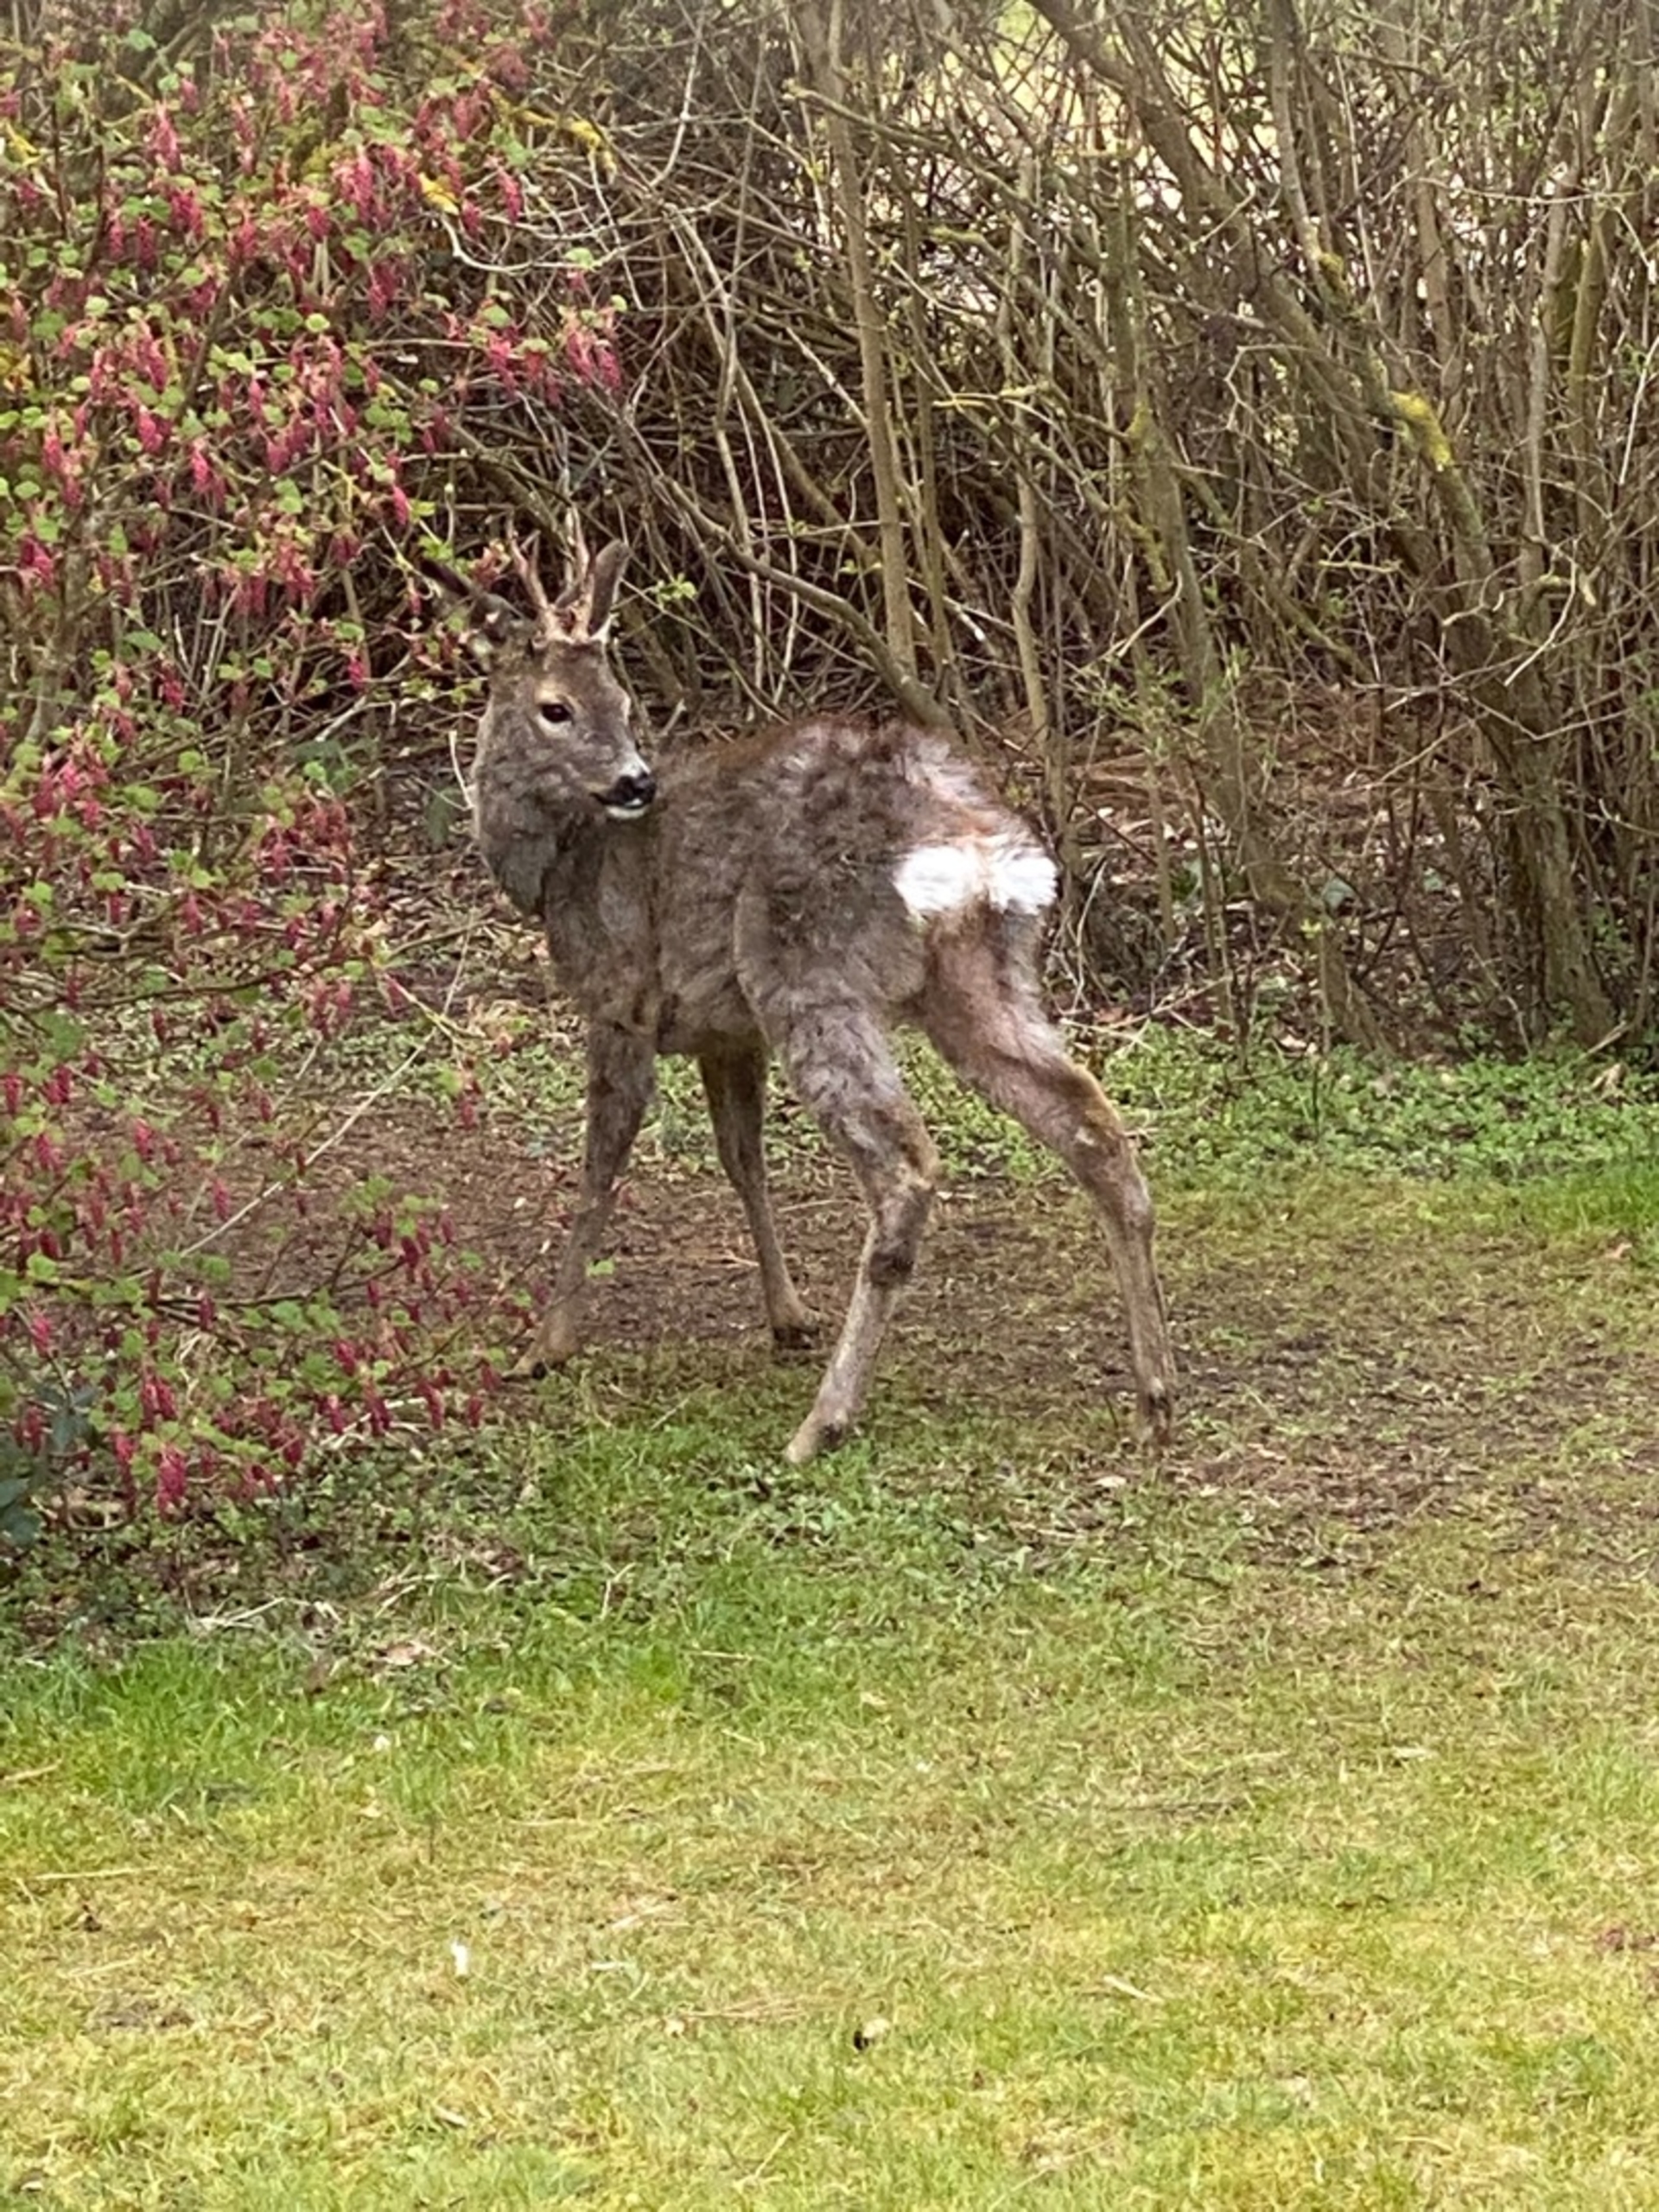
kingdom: Animalia
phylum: Chordata
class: Mammalia
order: Artiodactyla
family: Cervidae
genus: Capreolus
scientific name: Capreolus capreolus
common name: Rådyr
